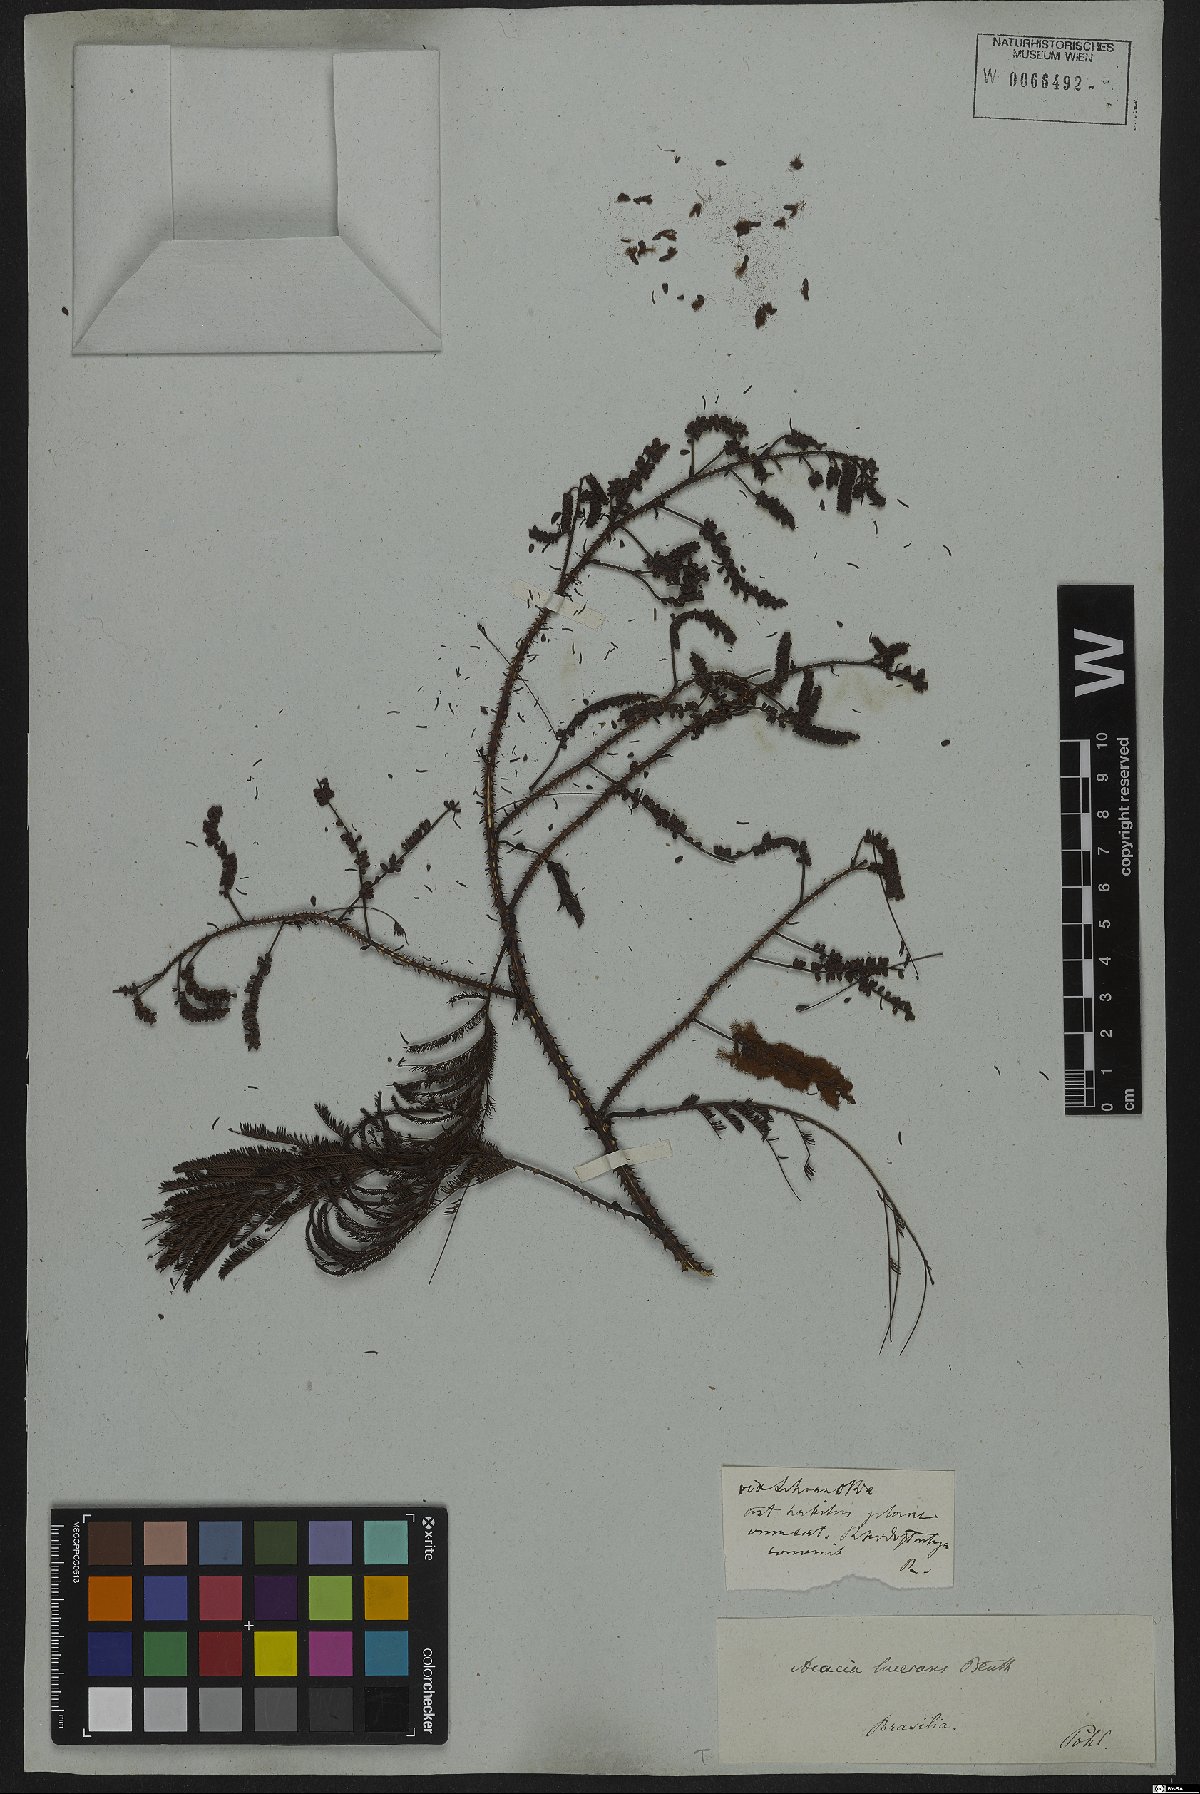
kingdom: Plantae
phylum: Tracheophyta
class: Magnoliopsida
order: Fabales
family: Fabaceae
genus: Senegalia
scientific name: Senegalia lacerans
